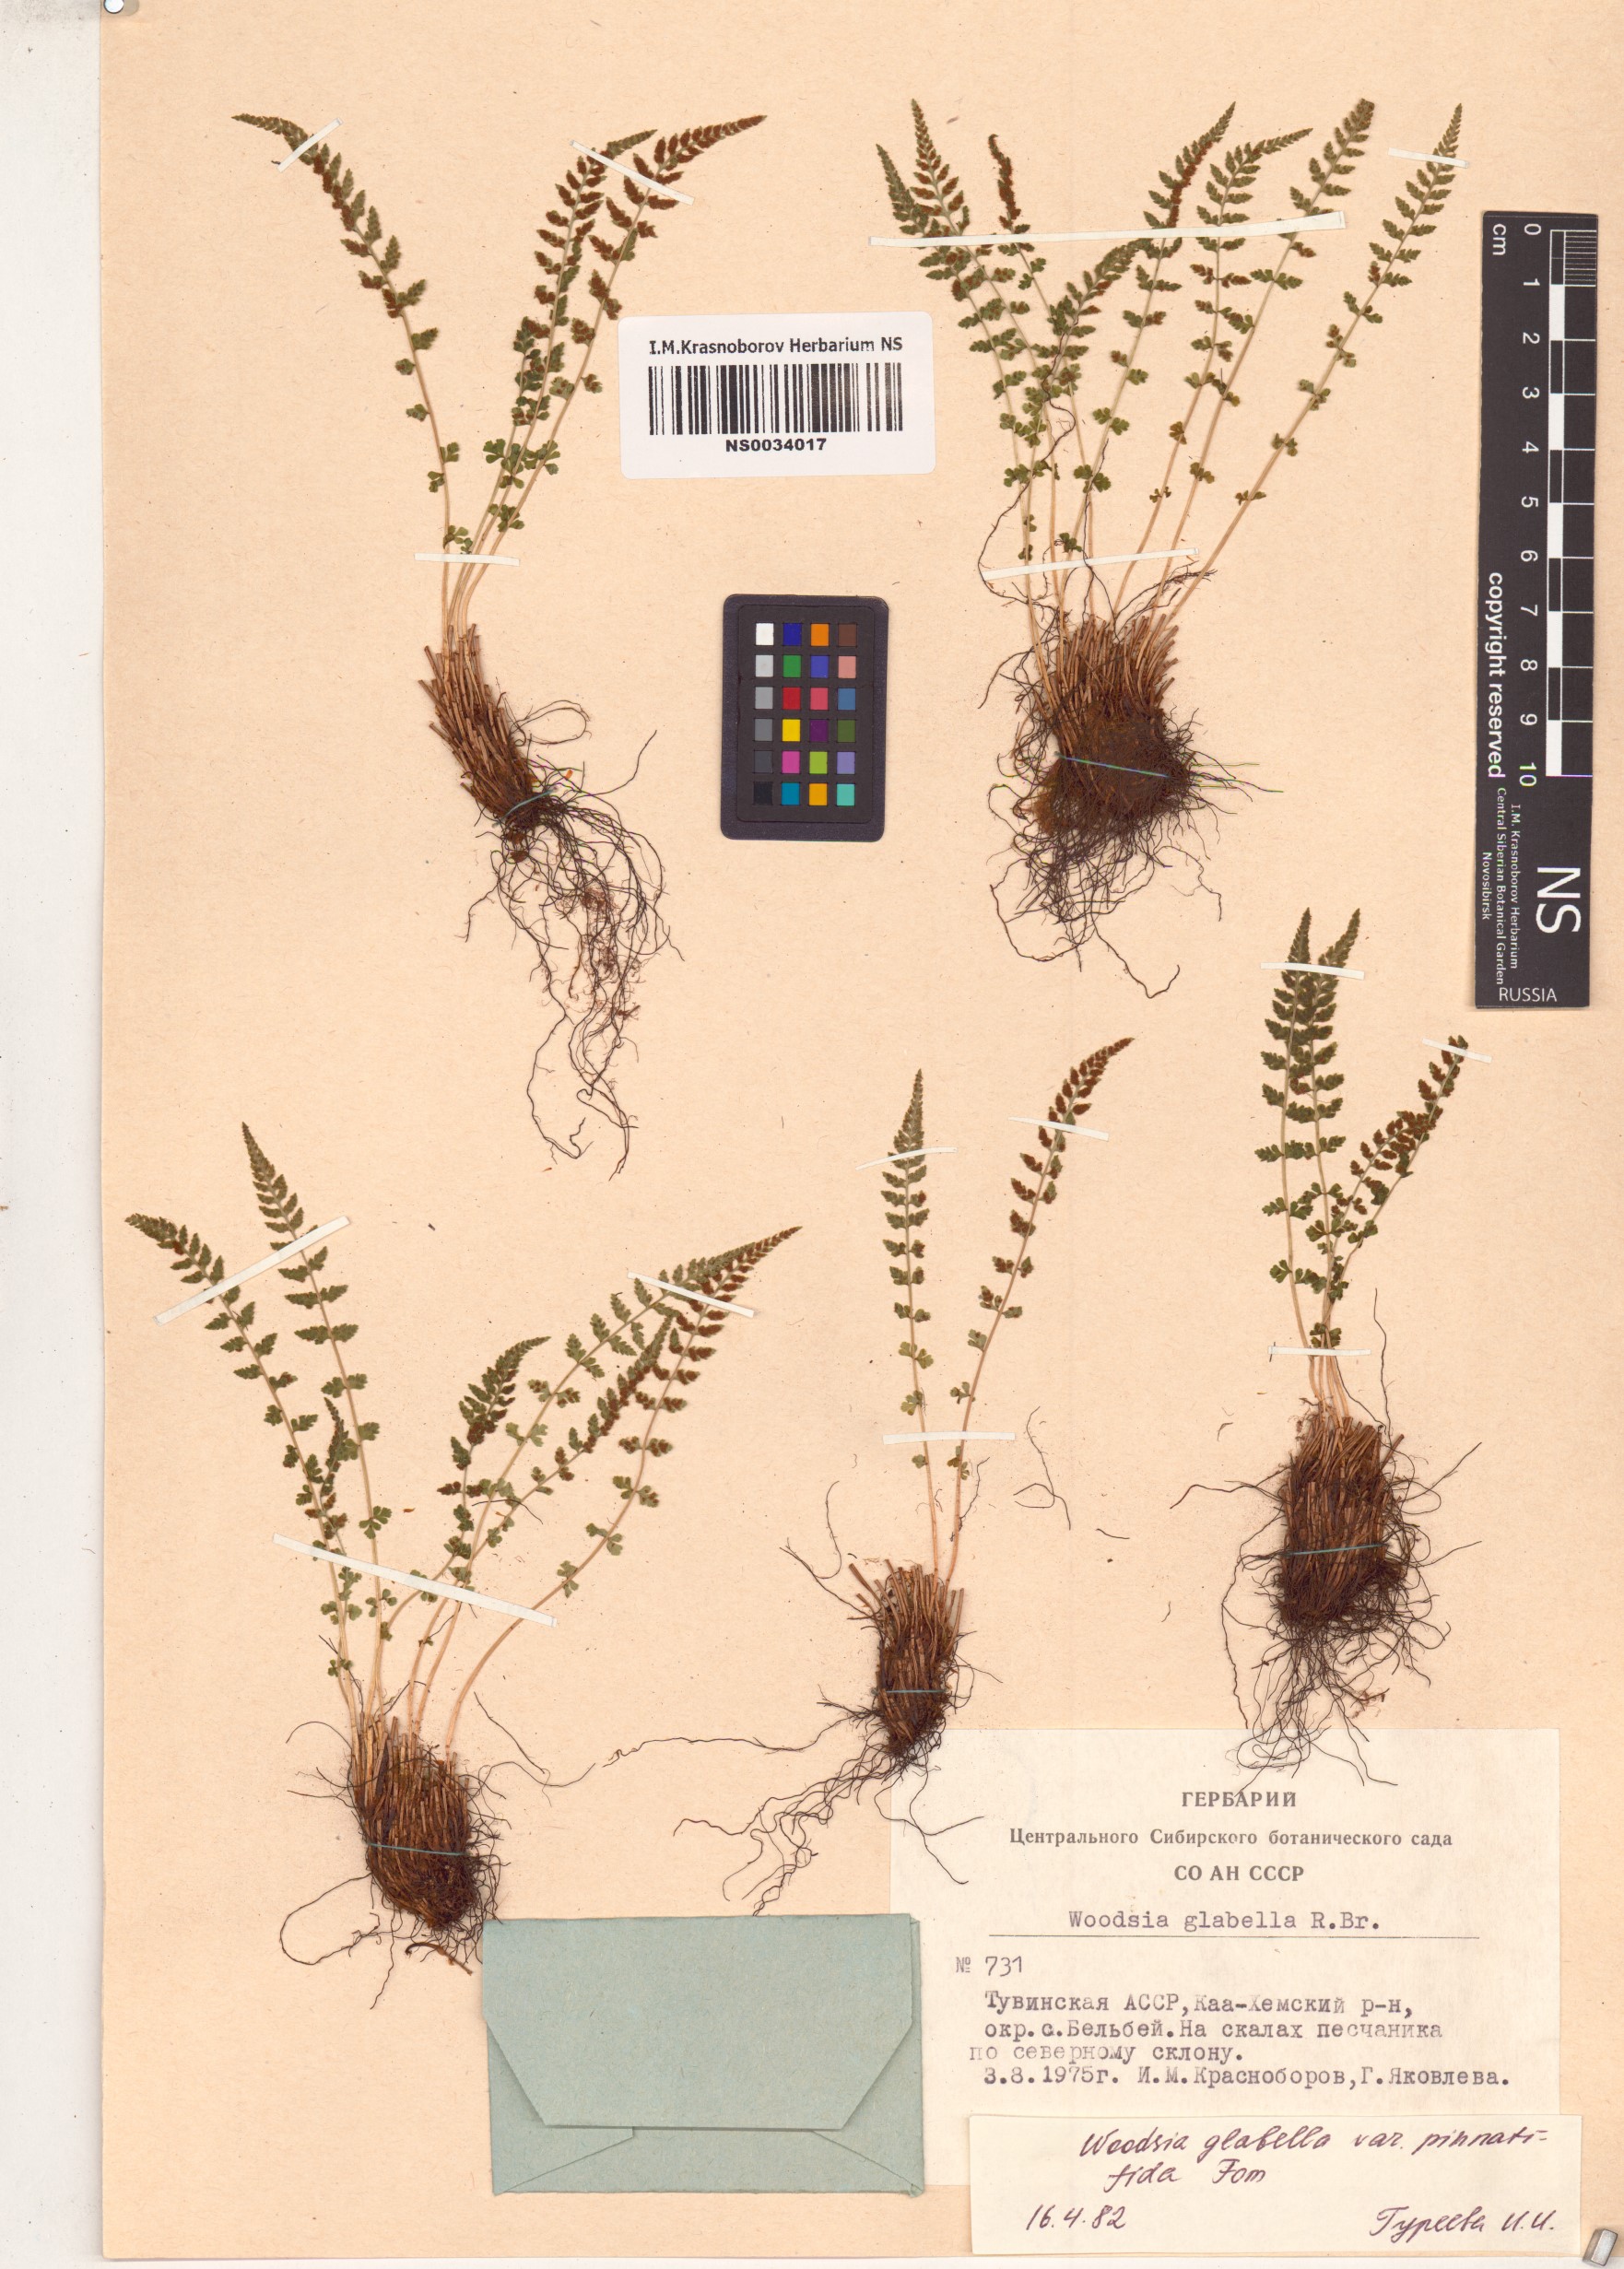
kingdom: Plantae
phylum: Tracheophyta
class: Polypodiopsida
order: Polypodiales
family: Woodsiaceae
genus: Woodsia
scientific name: Woodsia pulchella
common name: Graceful woodsia
